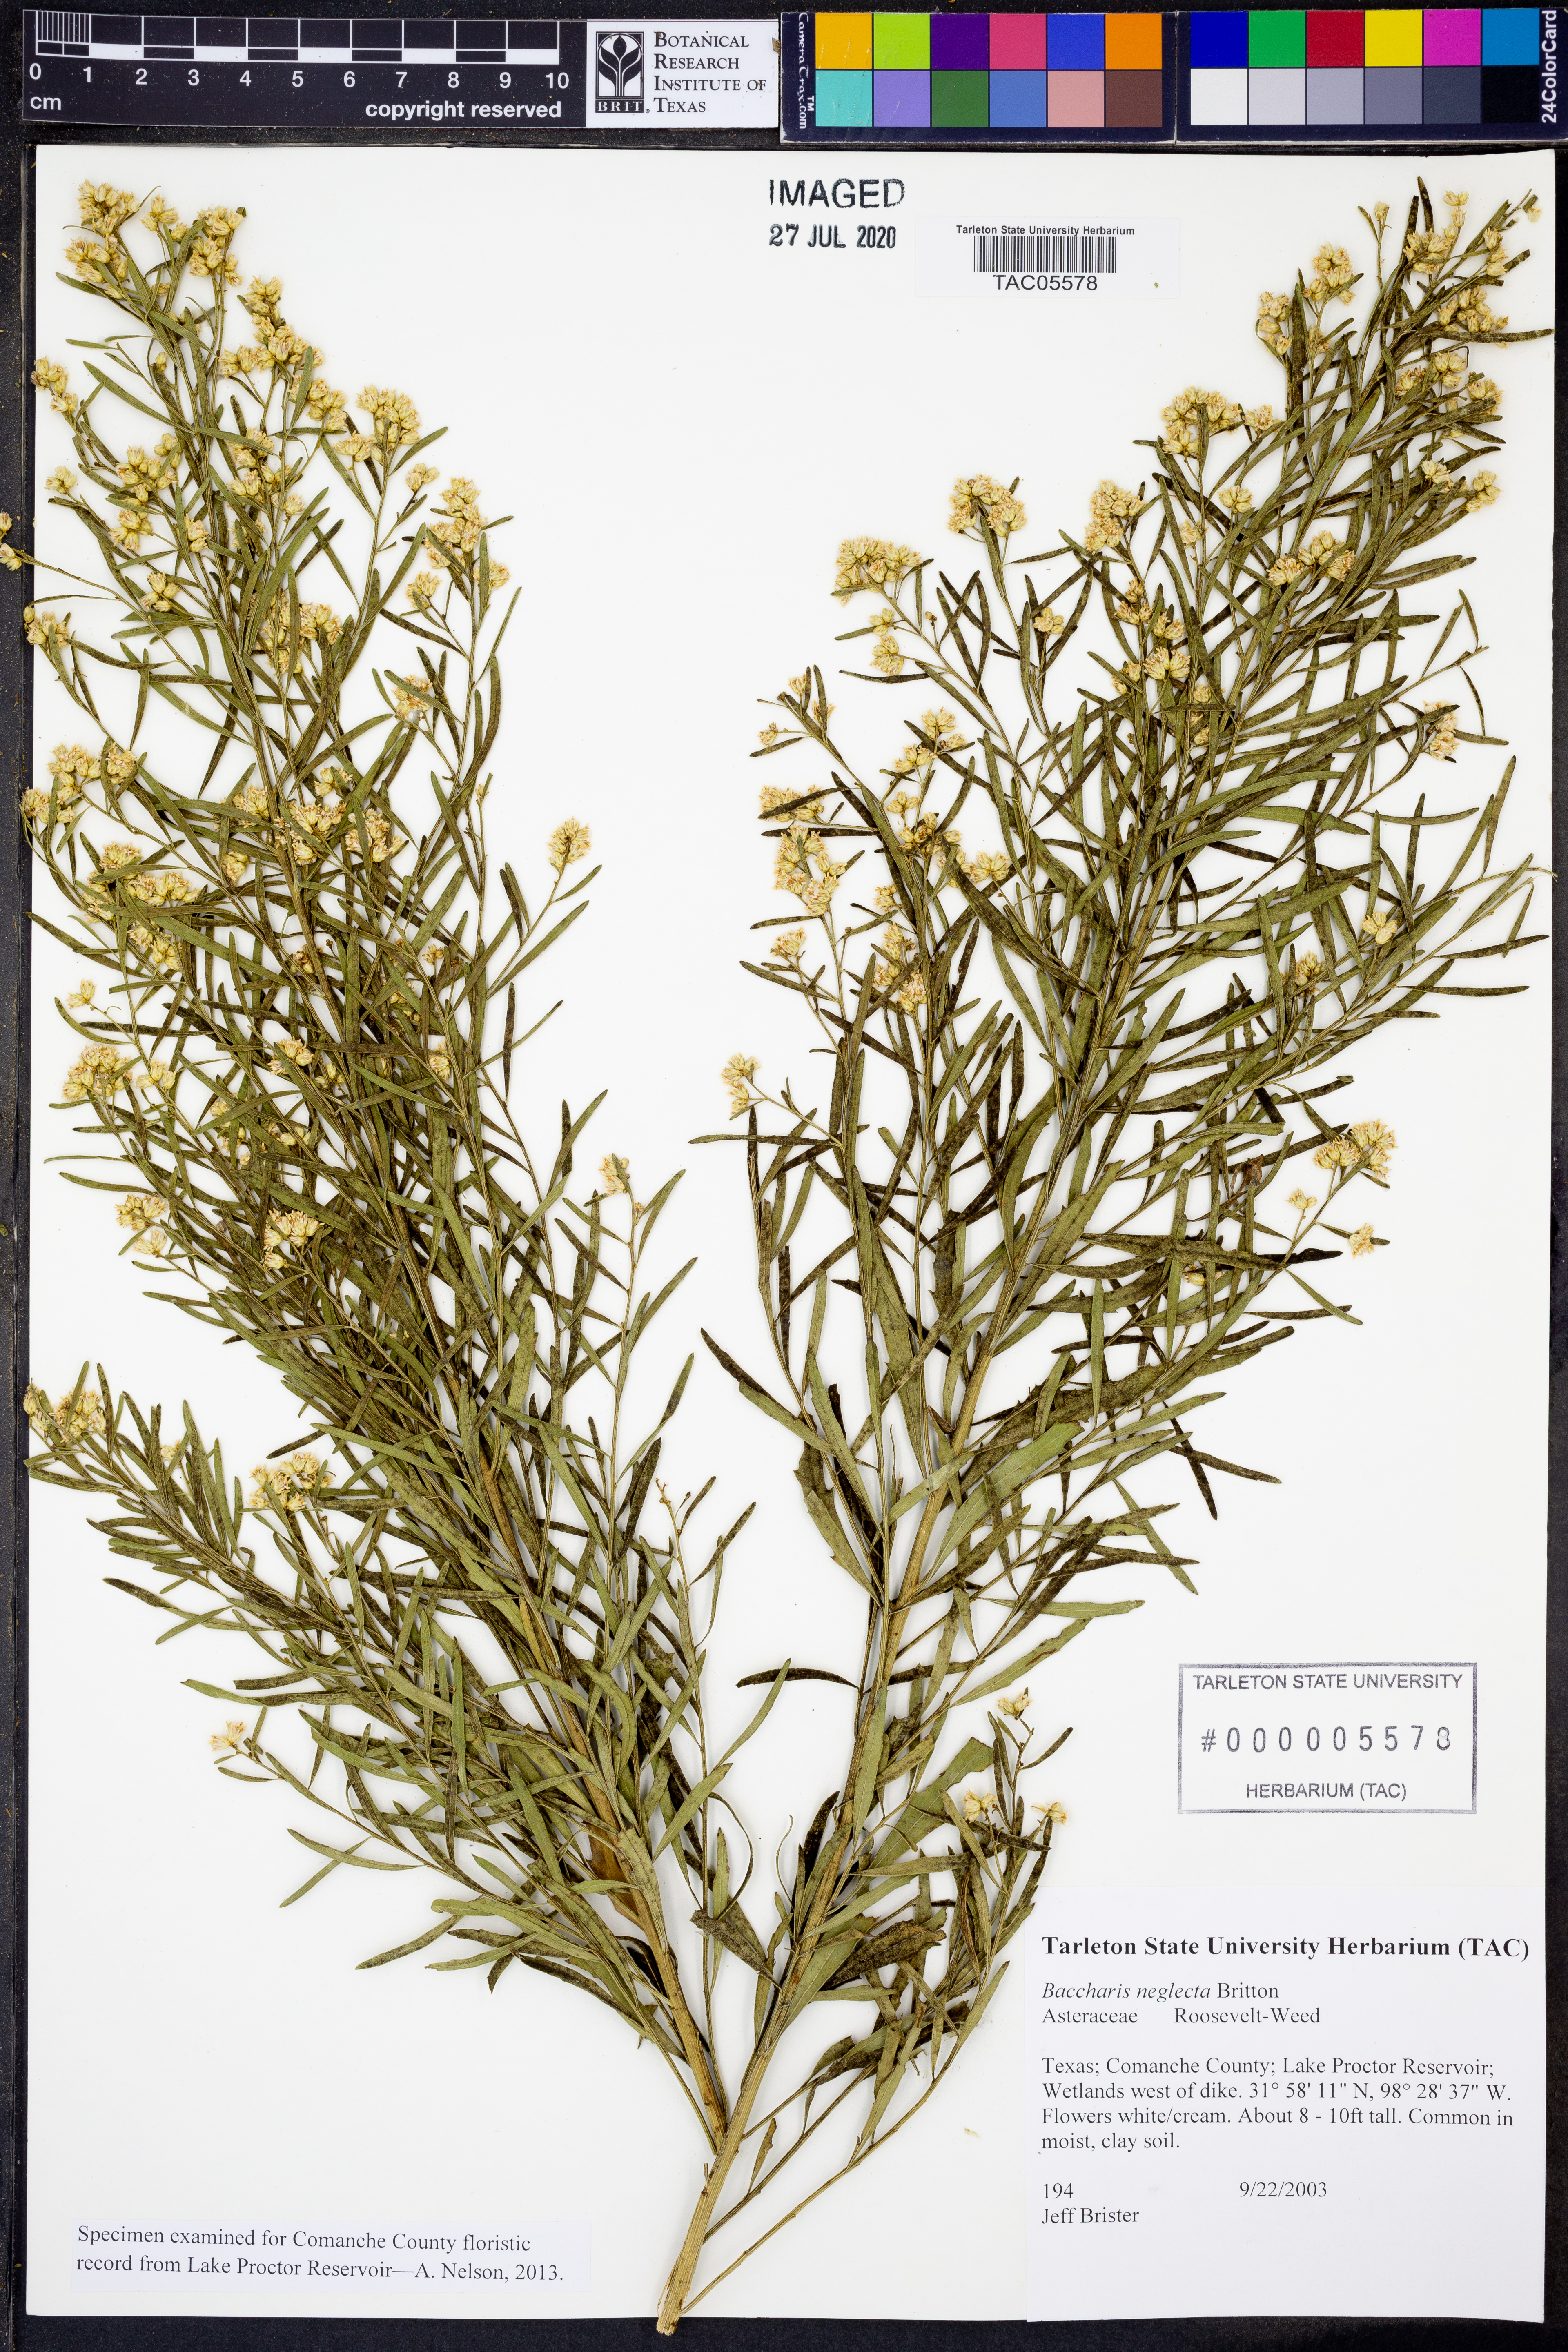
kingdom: Plantae
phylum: Tracheophyta
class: Magnoliopsida
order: Asterales
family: Asteraceae
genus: Baccharis
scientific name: Baccharis neglecta
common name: Roosevelt-weed
